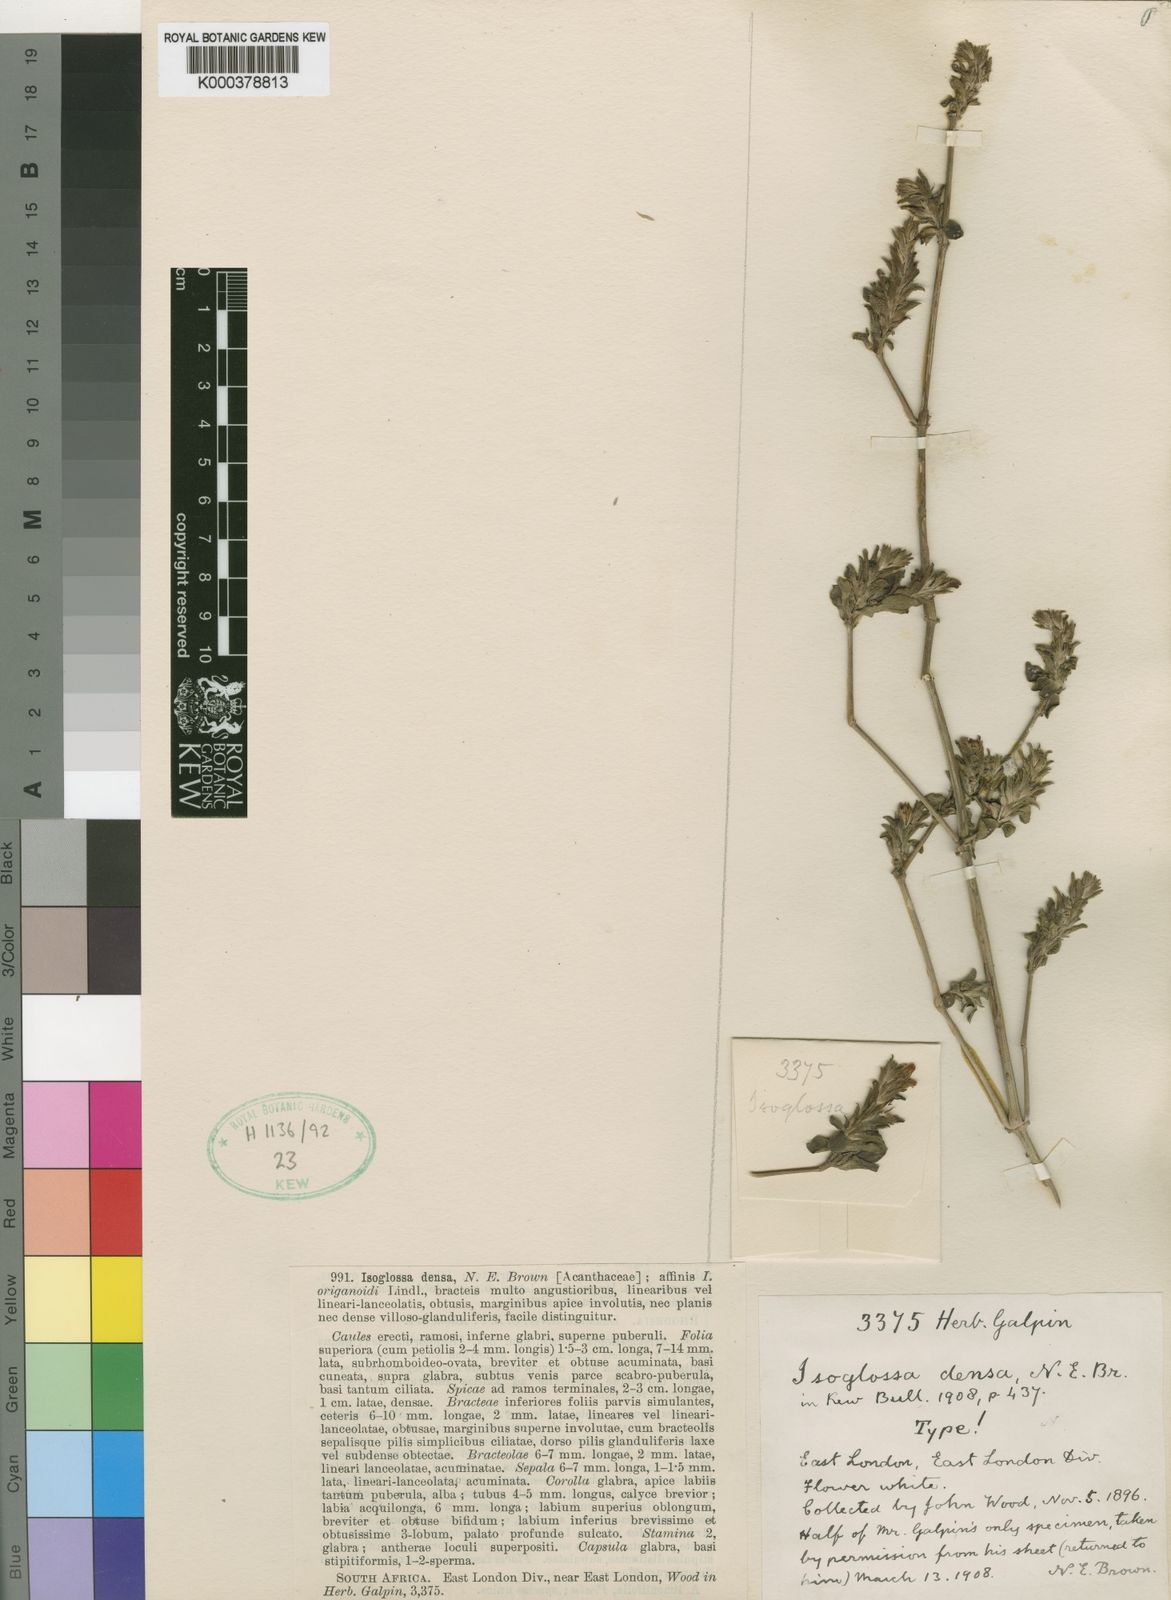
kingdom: Plantae
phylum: Tracheophyta
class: Magnoliopsida
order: Lamiales
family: Acanthaceae
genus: Isoglossa
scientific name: Isoglossa ciliata
